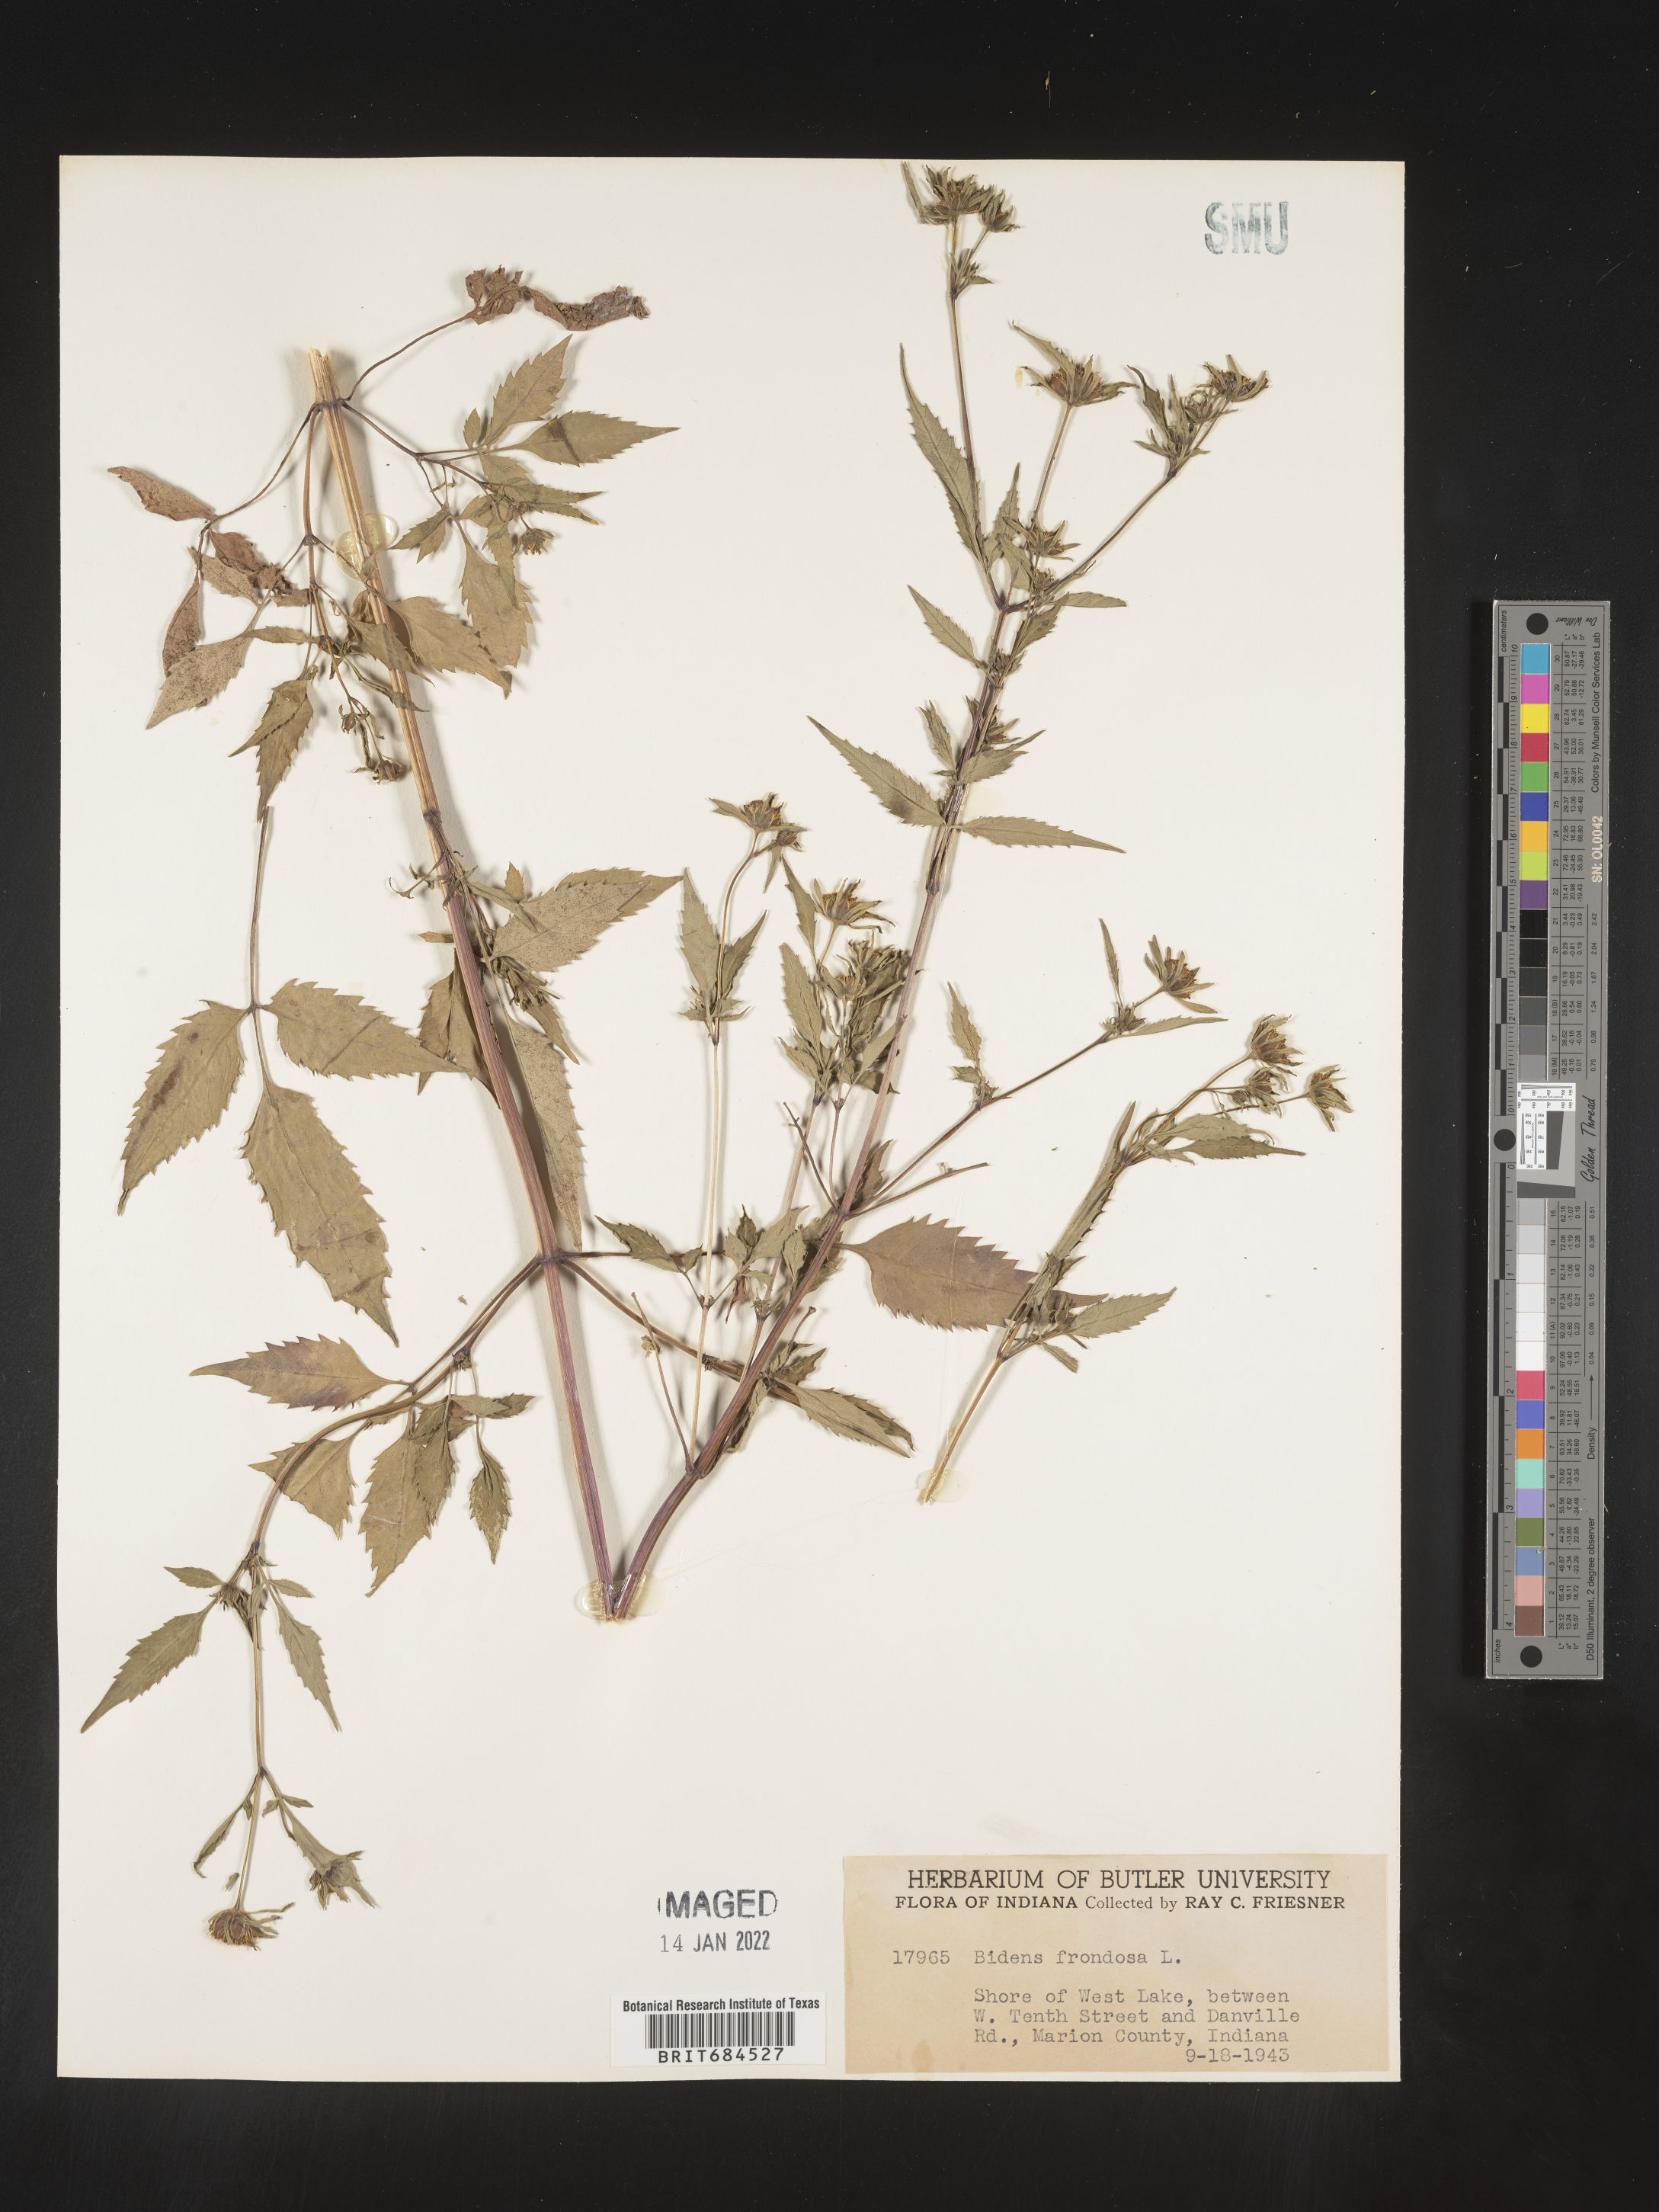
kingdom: Plantae
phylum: Tracheophyta
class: Magnoliopsida
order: Asterales
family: Asteraceae
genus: Bidens
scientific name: Bidens frondosa
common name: Beggarticks
